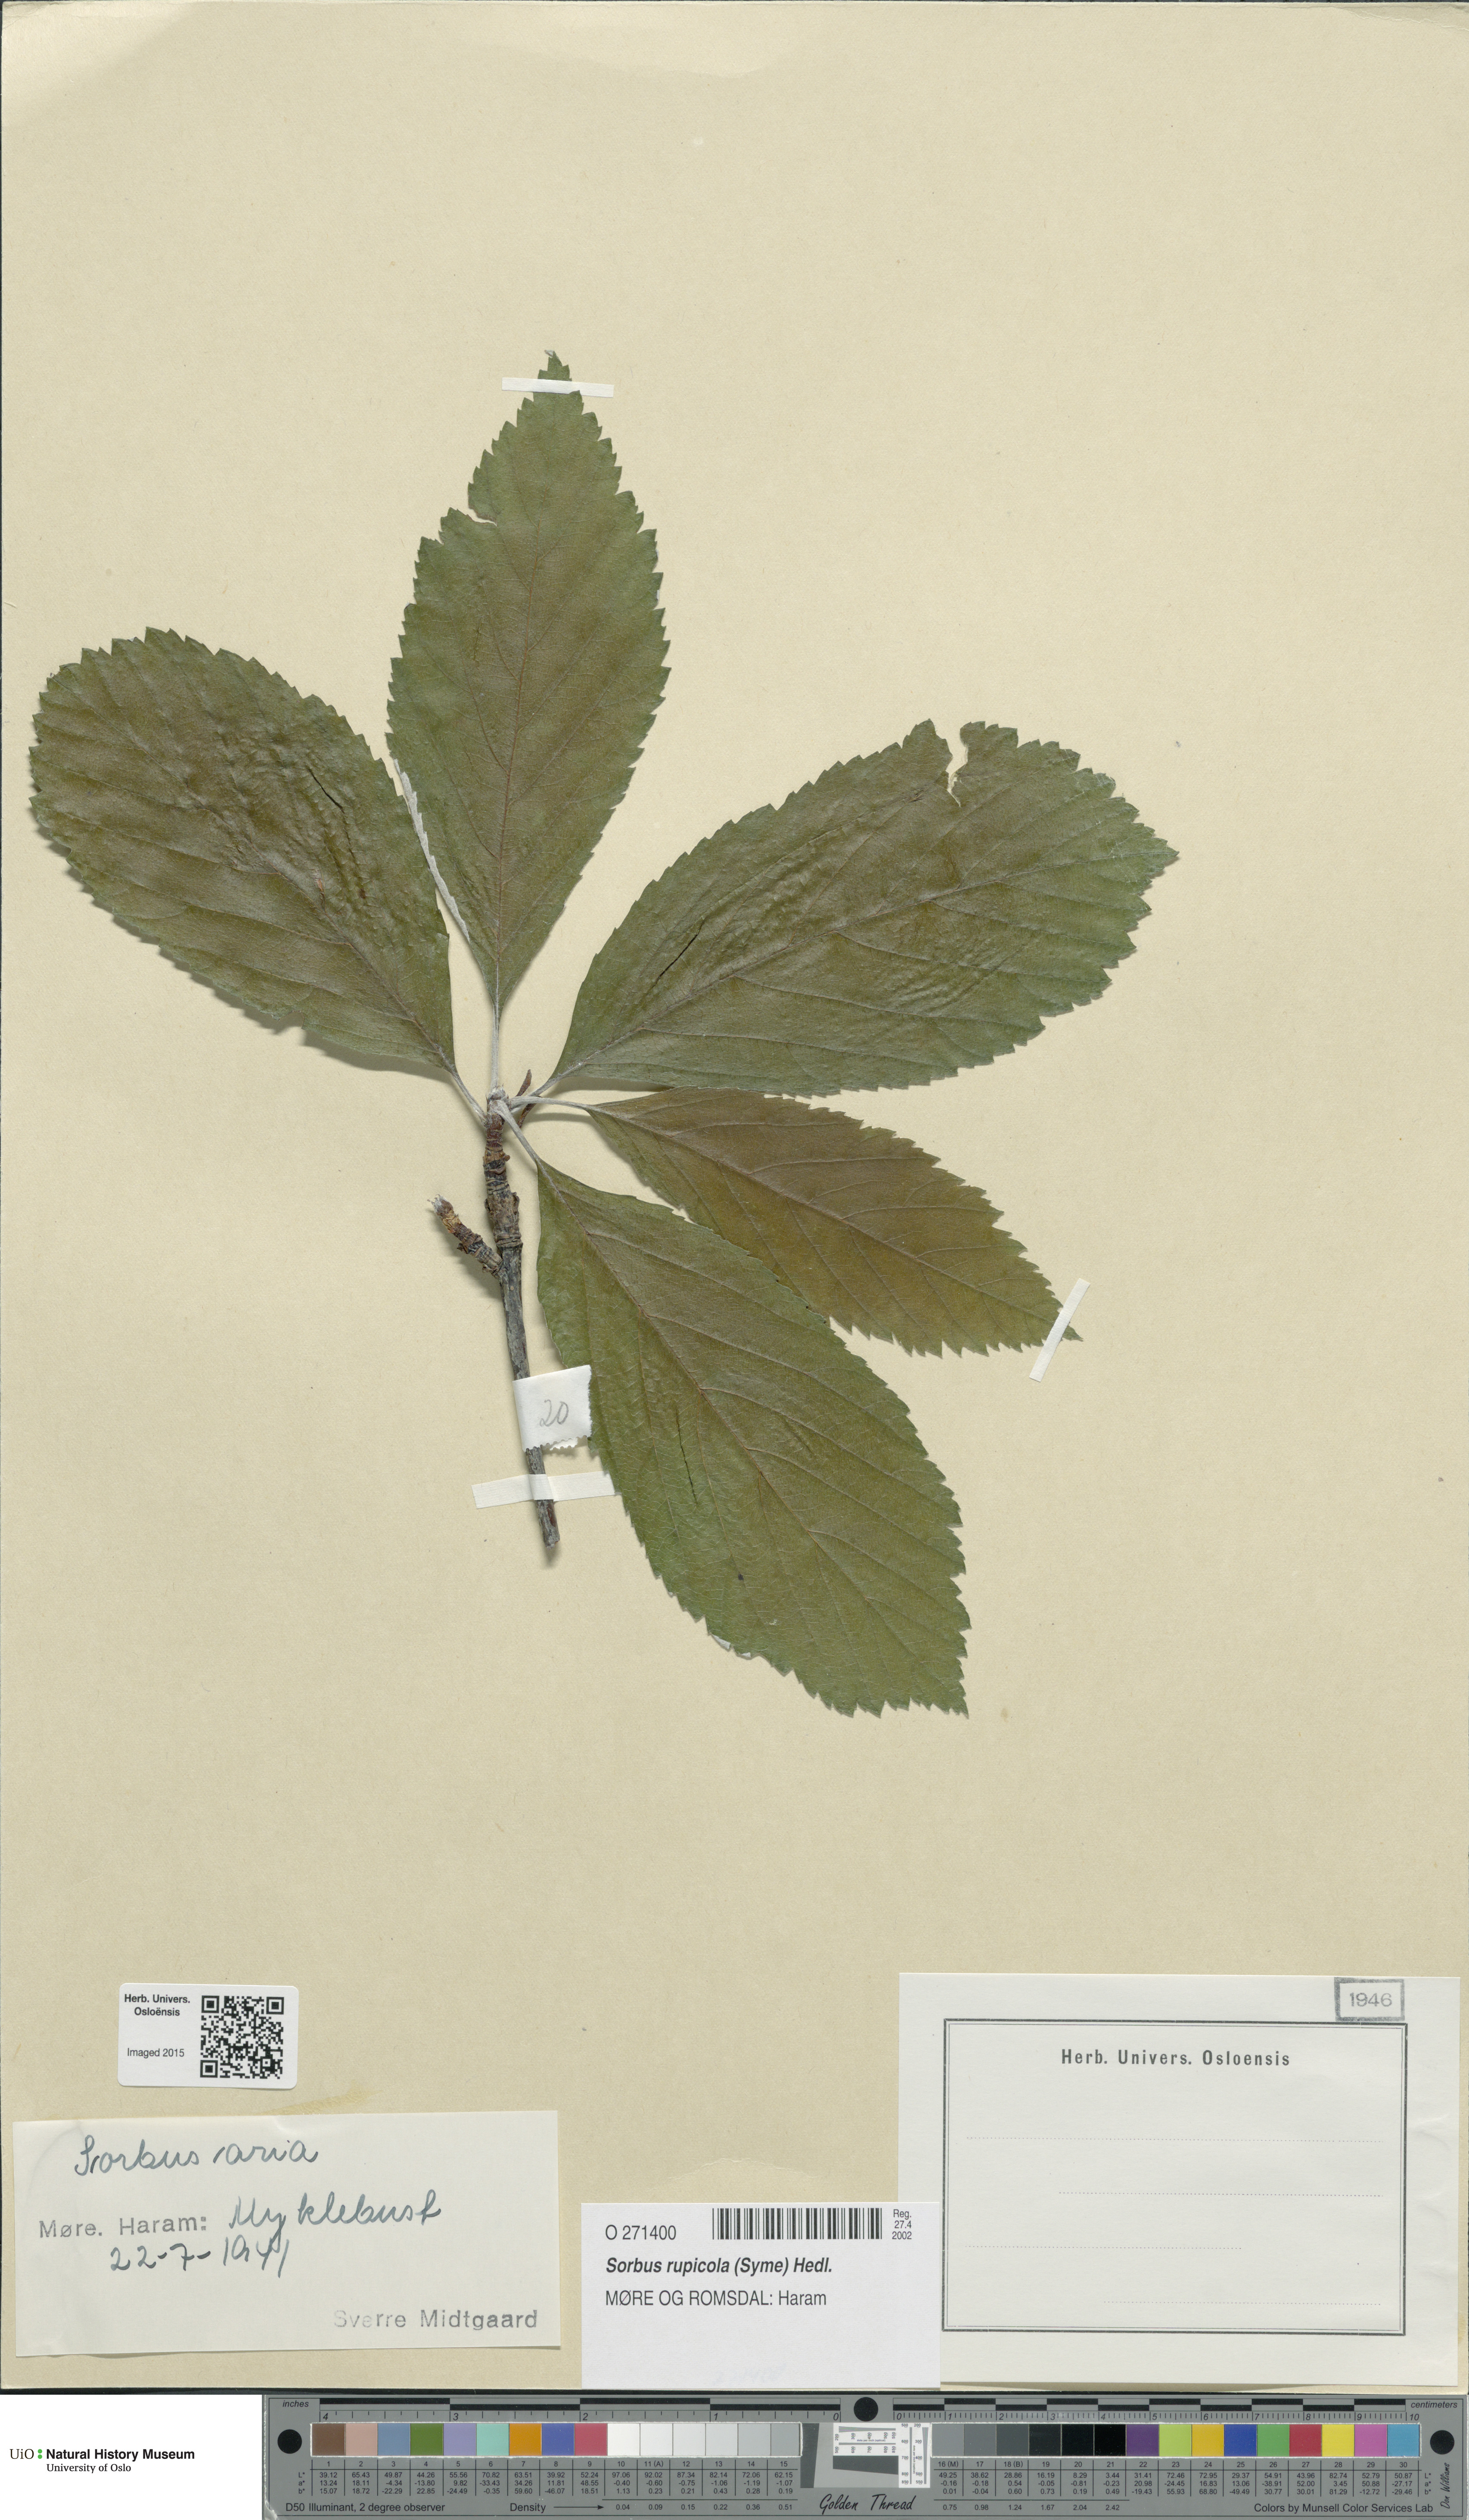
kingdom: Plantae
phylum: Tracheophyta
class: Magnoliopsida
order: Rosales
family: Rosaceae
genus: Aria
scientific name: Aria rupicola
